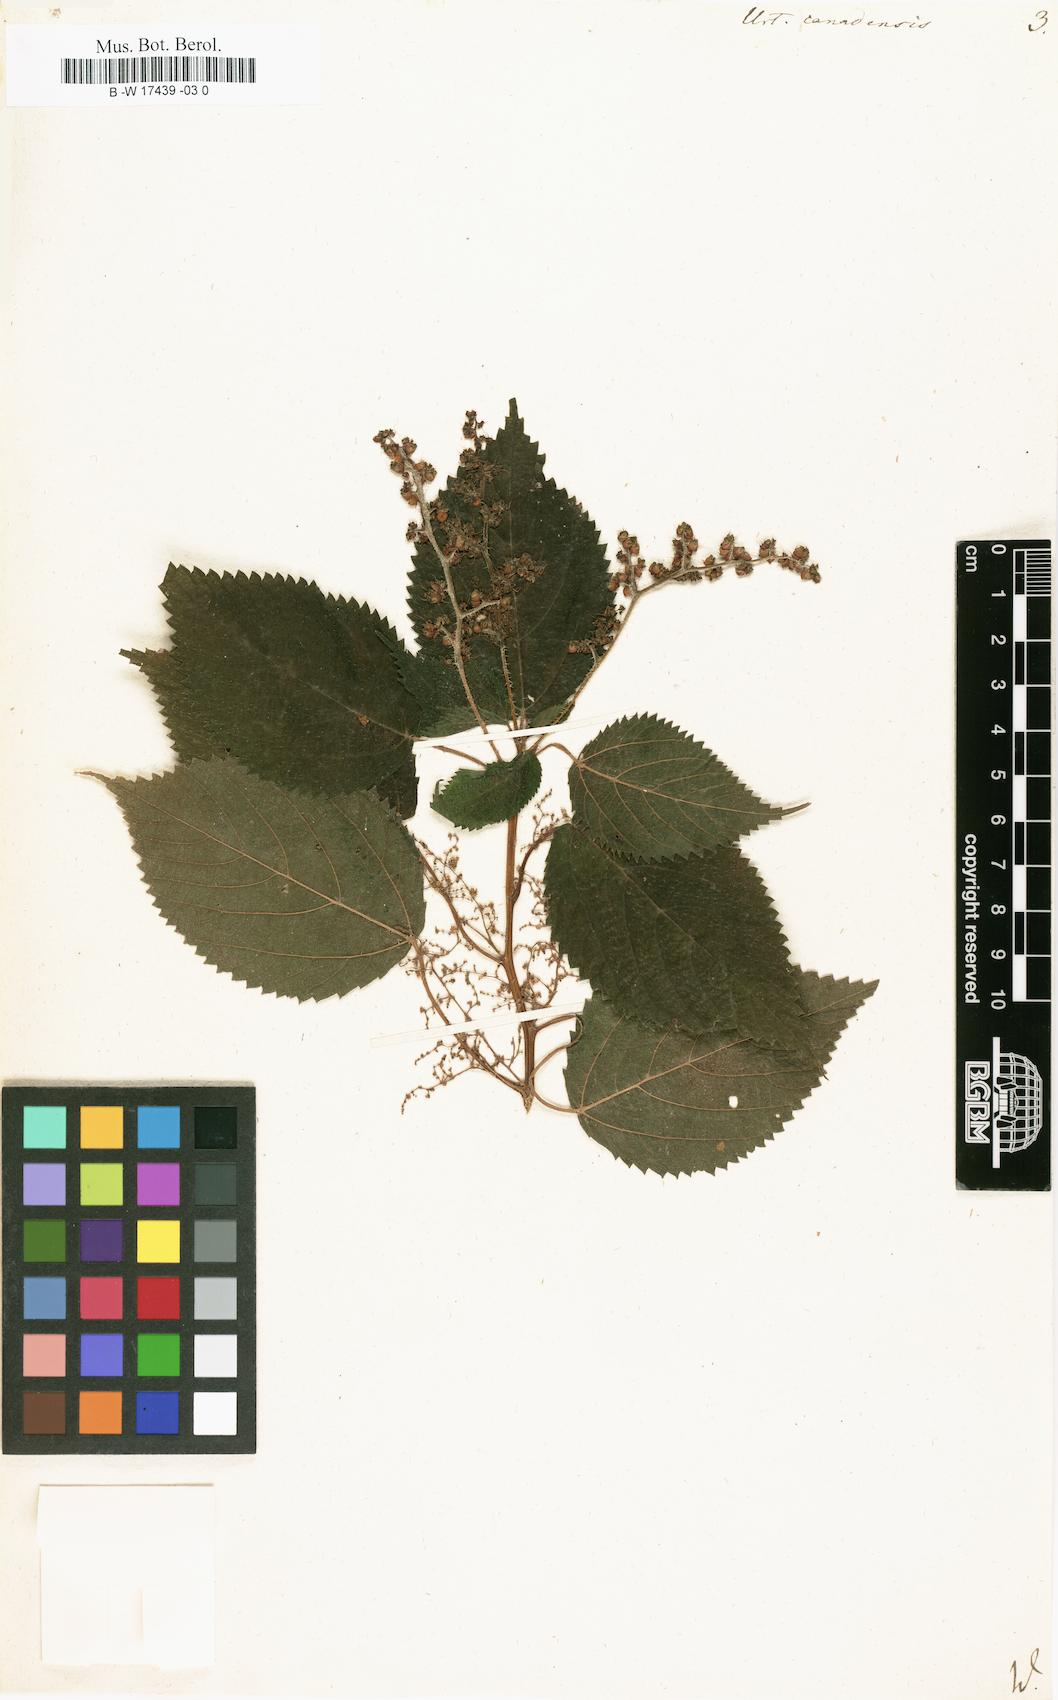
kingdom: Plantae
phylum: Tracheophyta
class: Magnoliopsida
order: Rosales
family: Urticaceae
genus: Laportea
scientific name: Laportea canadensis
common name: Canada nettle
